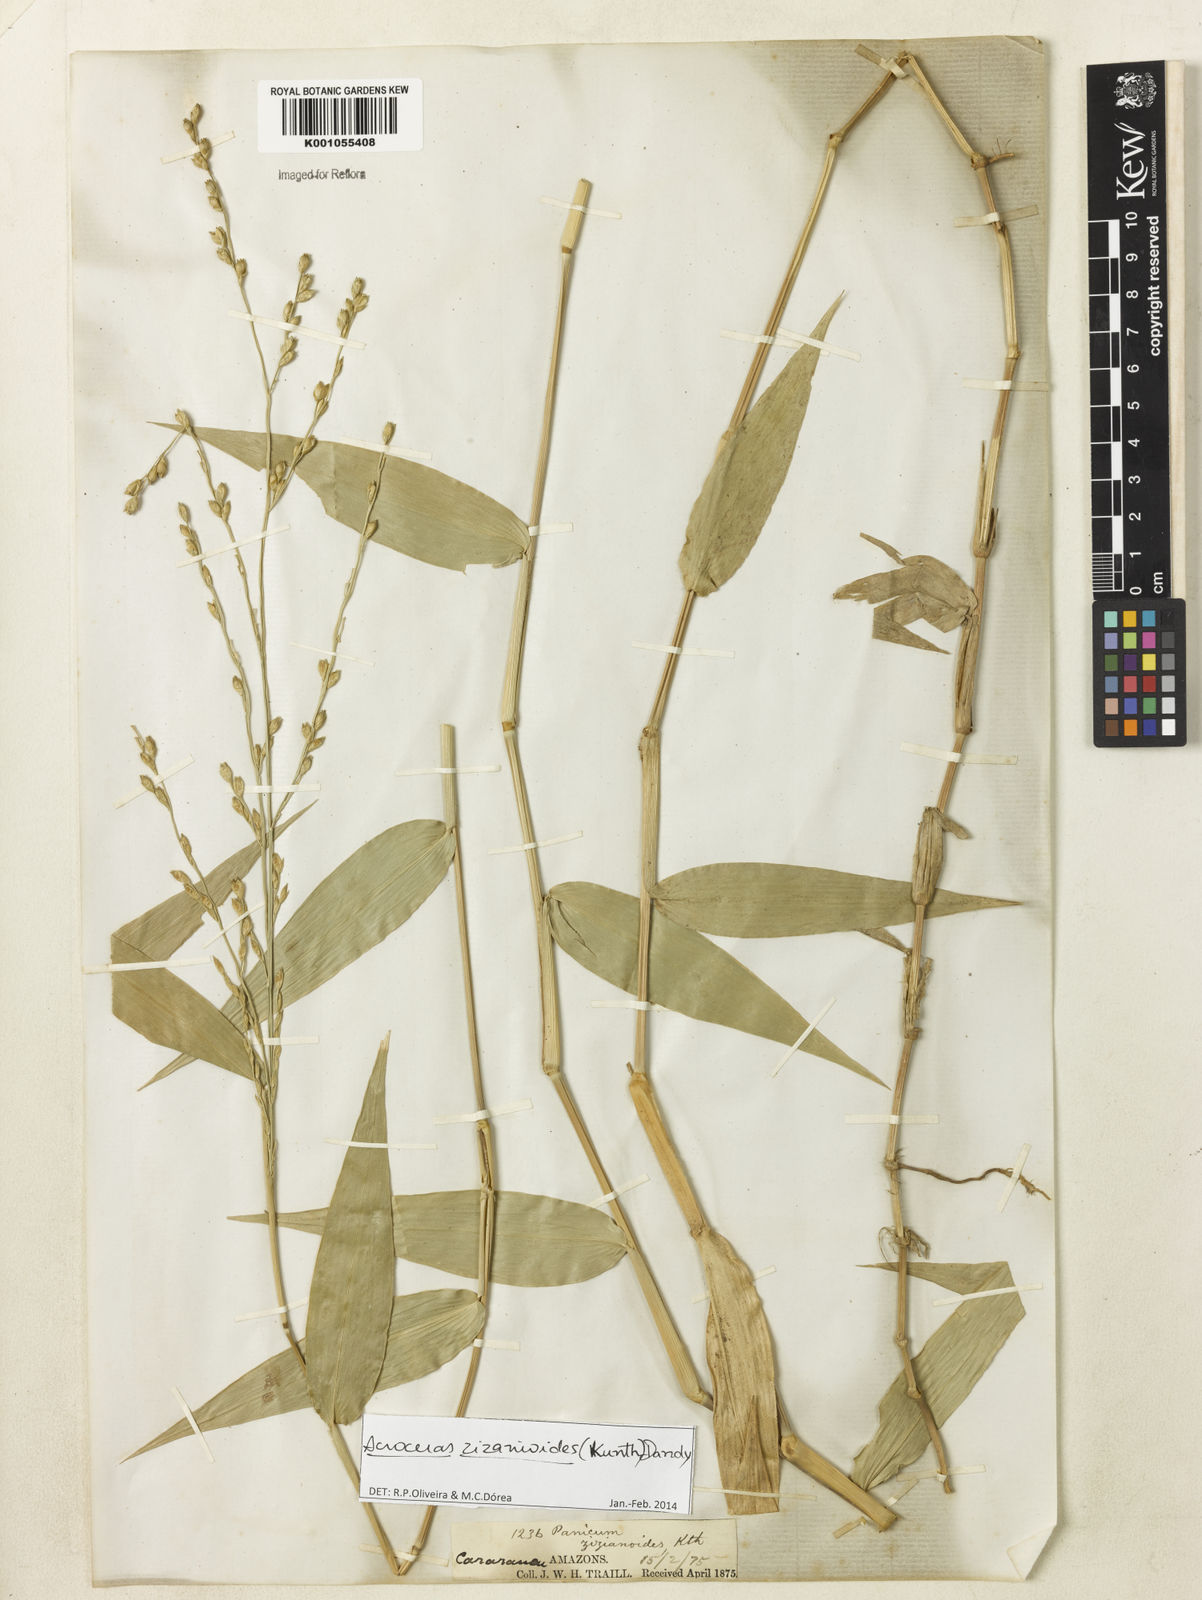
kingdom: Plantae
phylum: Tracheophyta
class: Liliopsida
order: Poales
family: Poaceae
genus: Acroceras
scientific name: Acroceras zizanioides
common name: Oat grass
